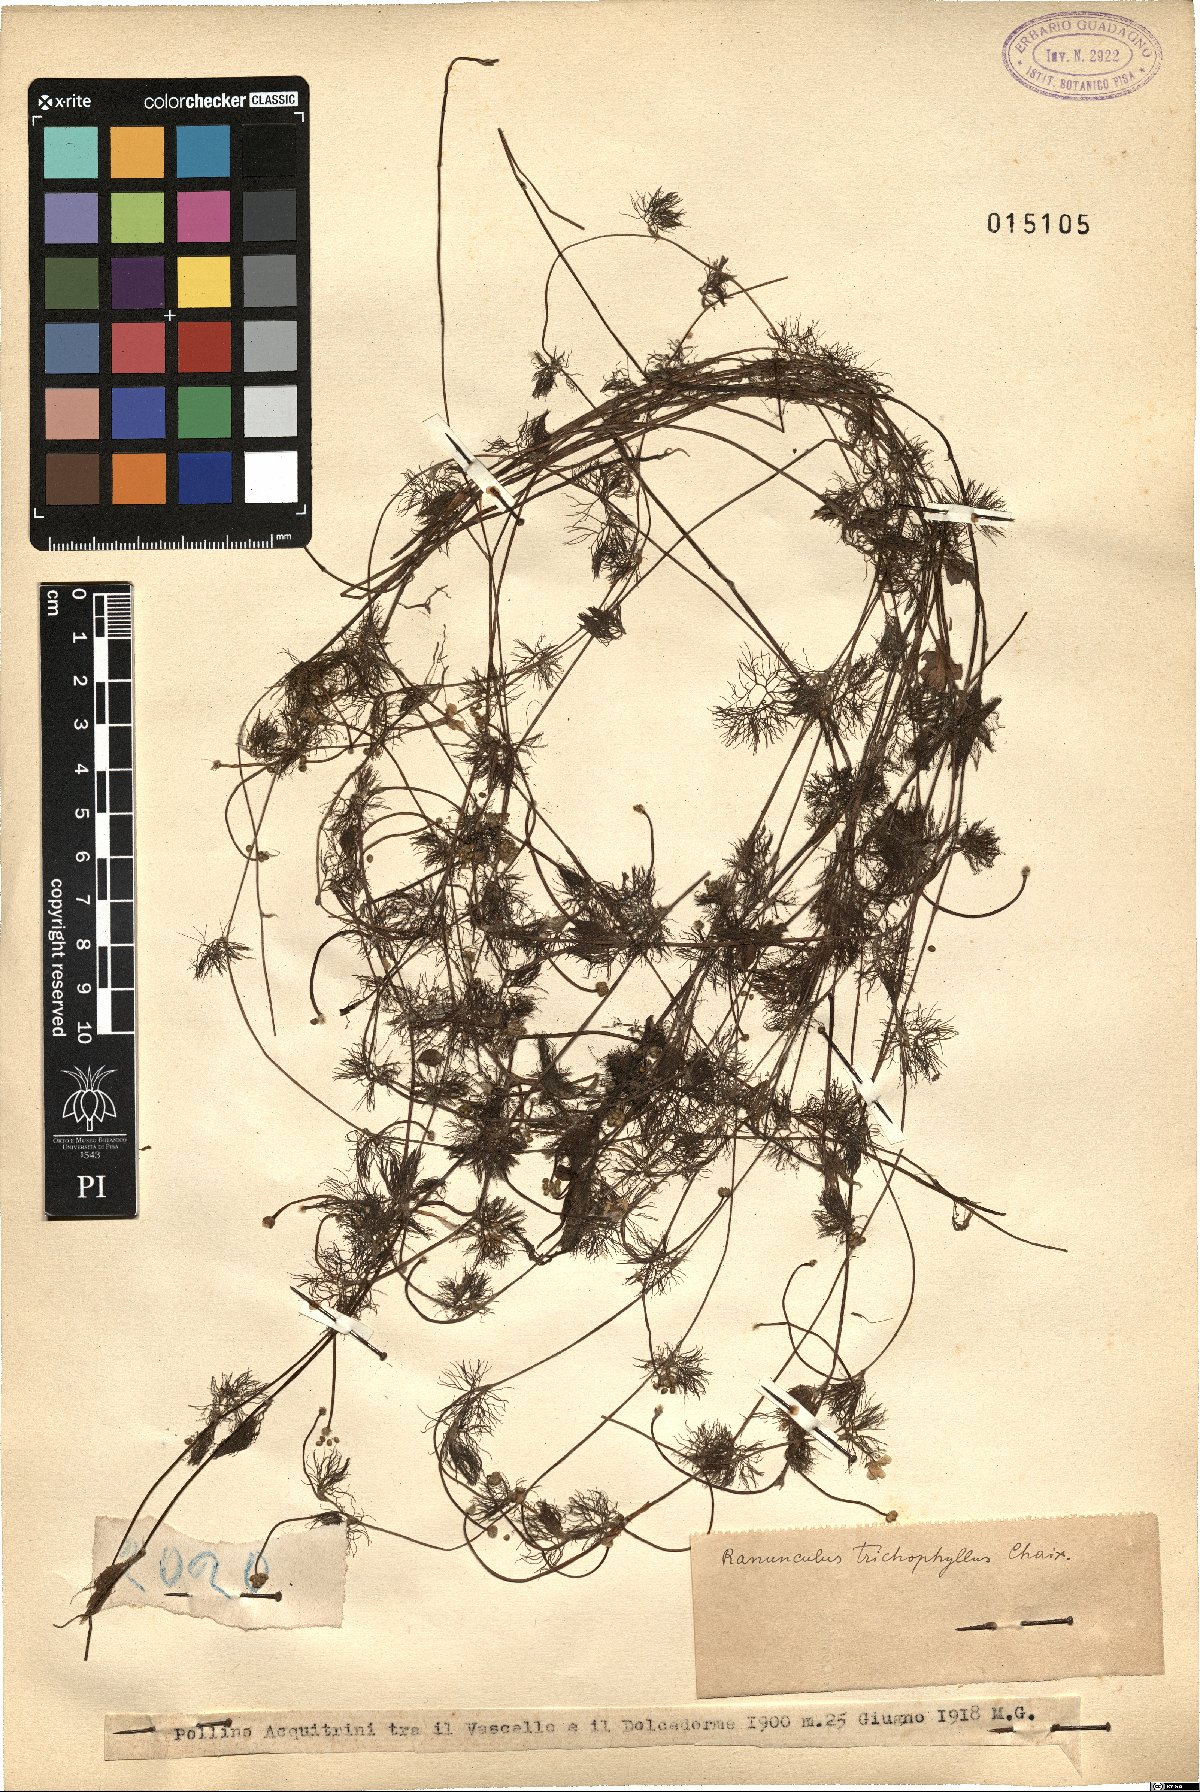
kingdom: Plantae
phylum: Tracheophyta
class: Magnoliopsida
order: Ranunculales
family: Ranunculaceae
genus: Ranunculus
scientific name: Ranunculus trichophyllus
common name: Thread-leaved water-crowfoot
